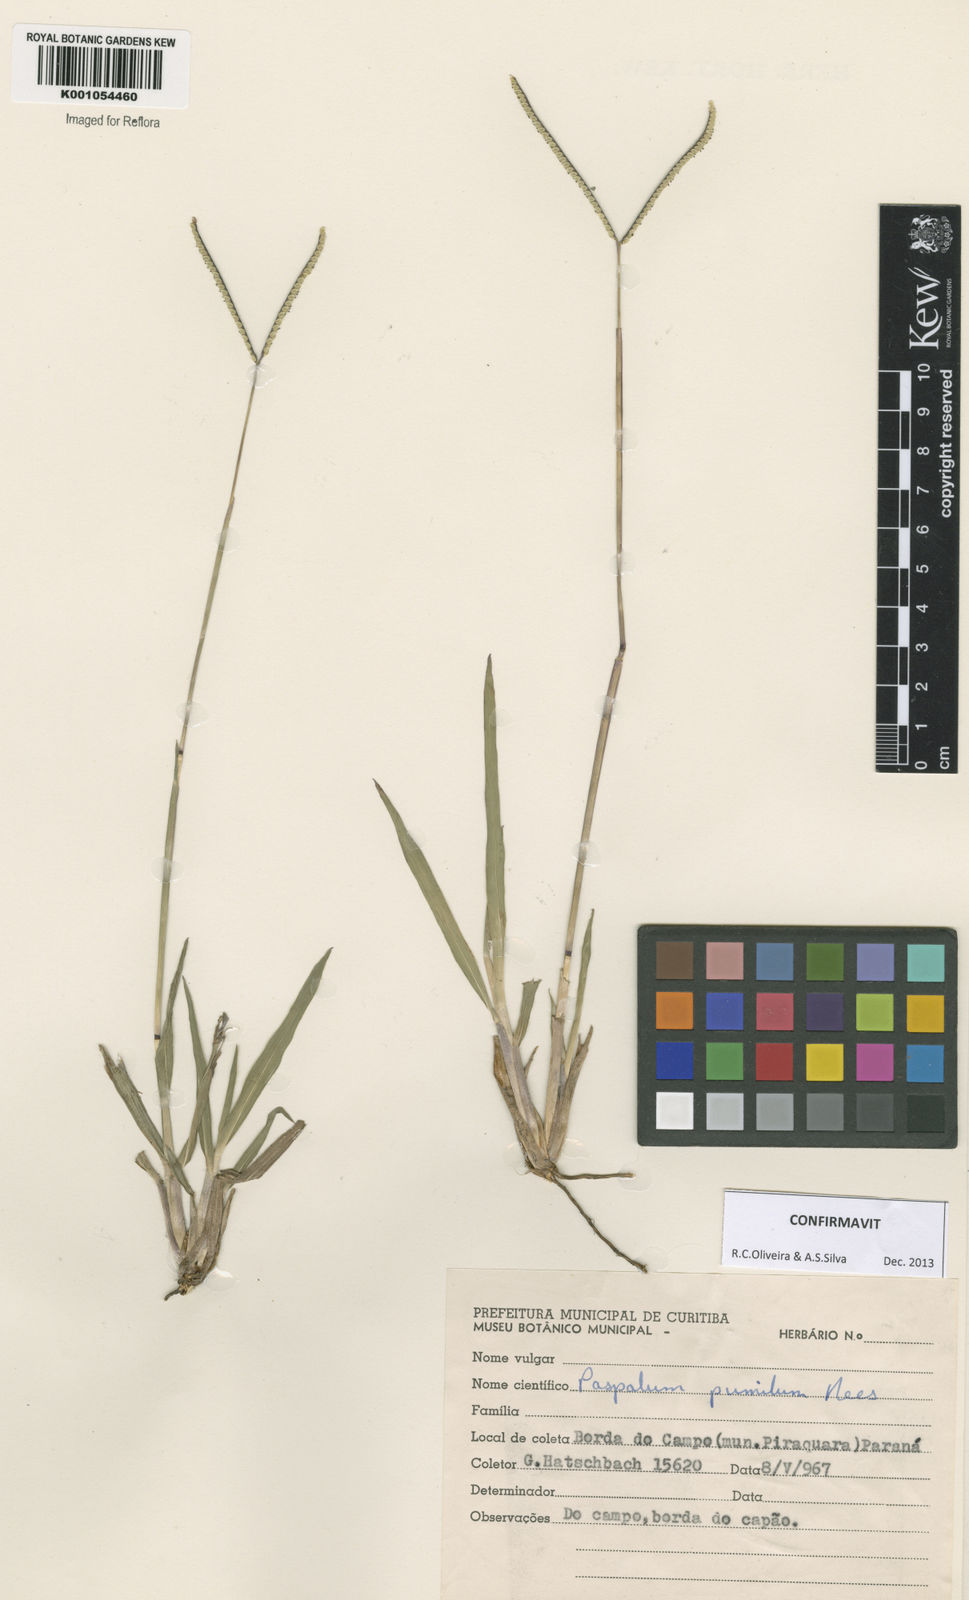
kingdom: Plantae
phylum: Tracheophyta
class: Liliopsida
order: Poales
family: Poaceae
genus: Paspalum
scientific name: Paspalum pumilum
